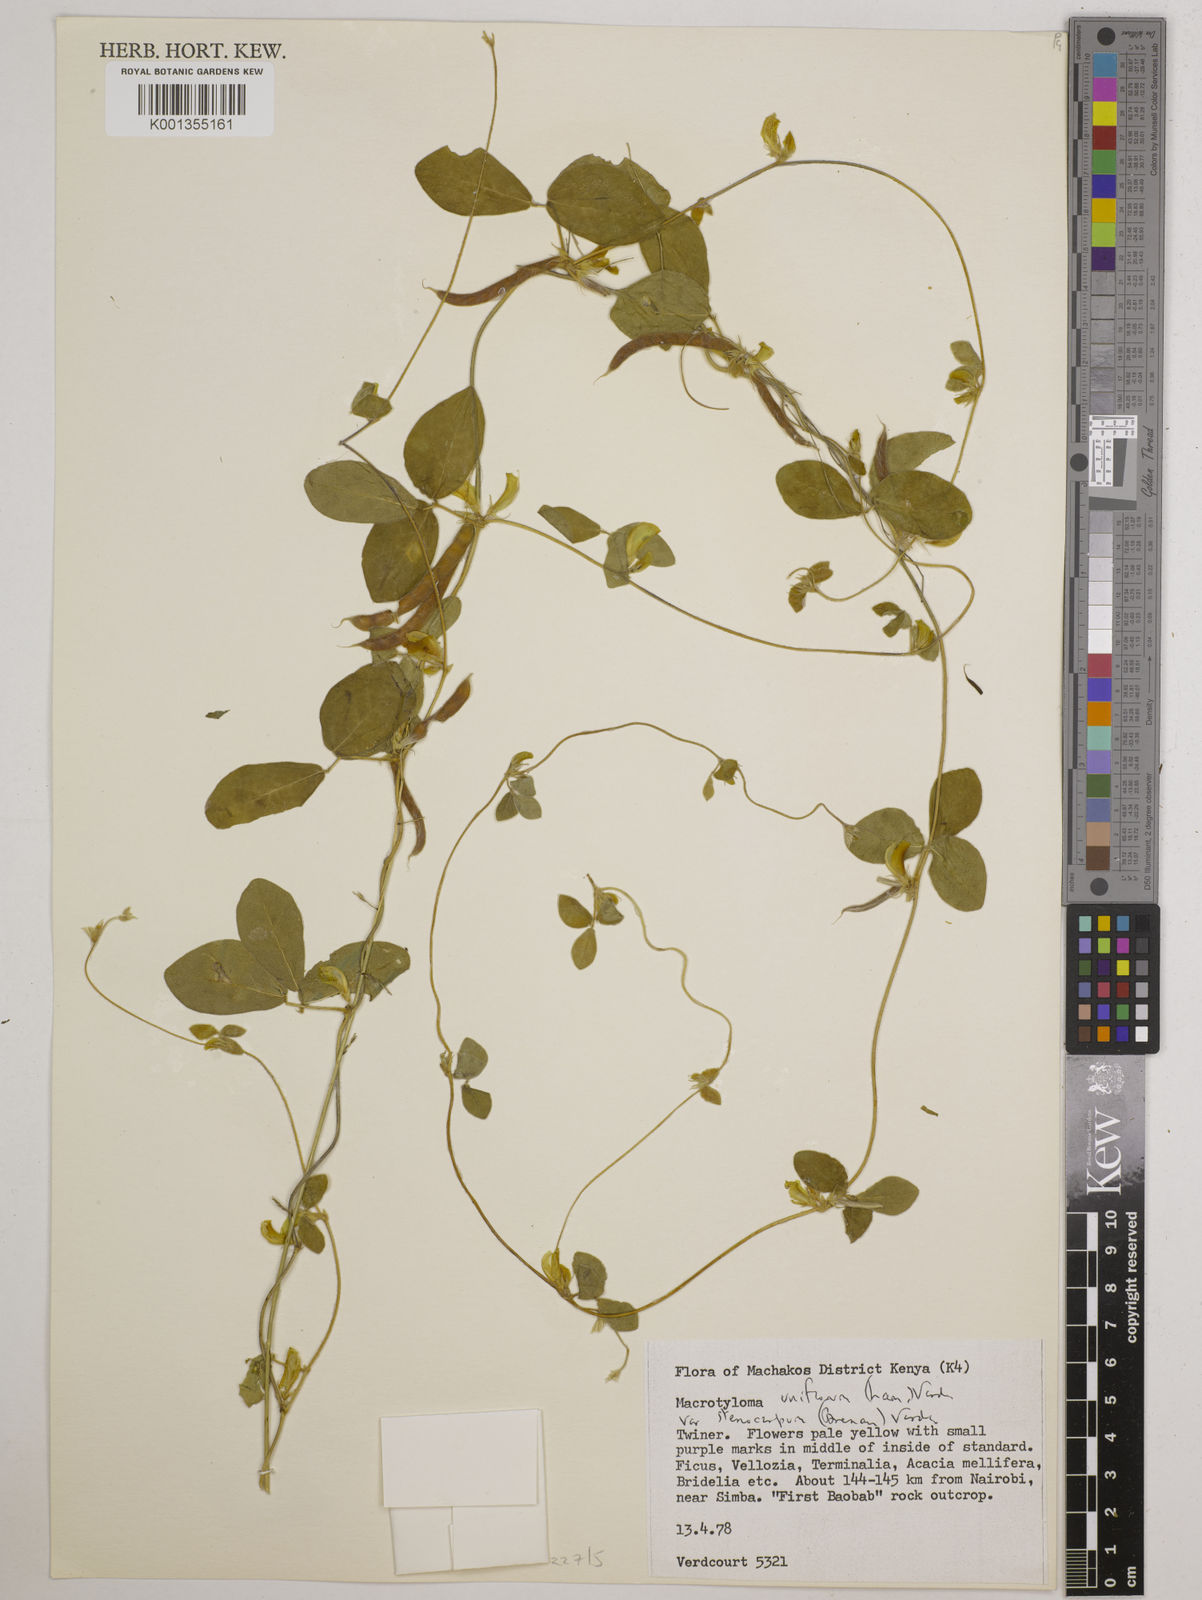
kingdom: Plantae
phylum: Tracheophyta
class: Magnoliopsida
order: Fabales
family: Fabaceae
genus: Macrotyloma
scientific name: Macrotyloma
